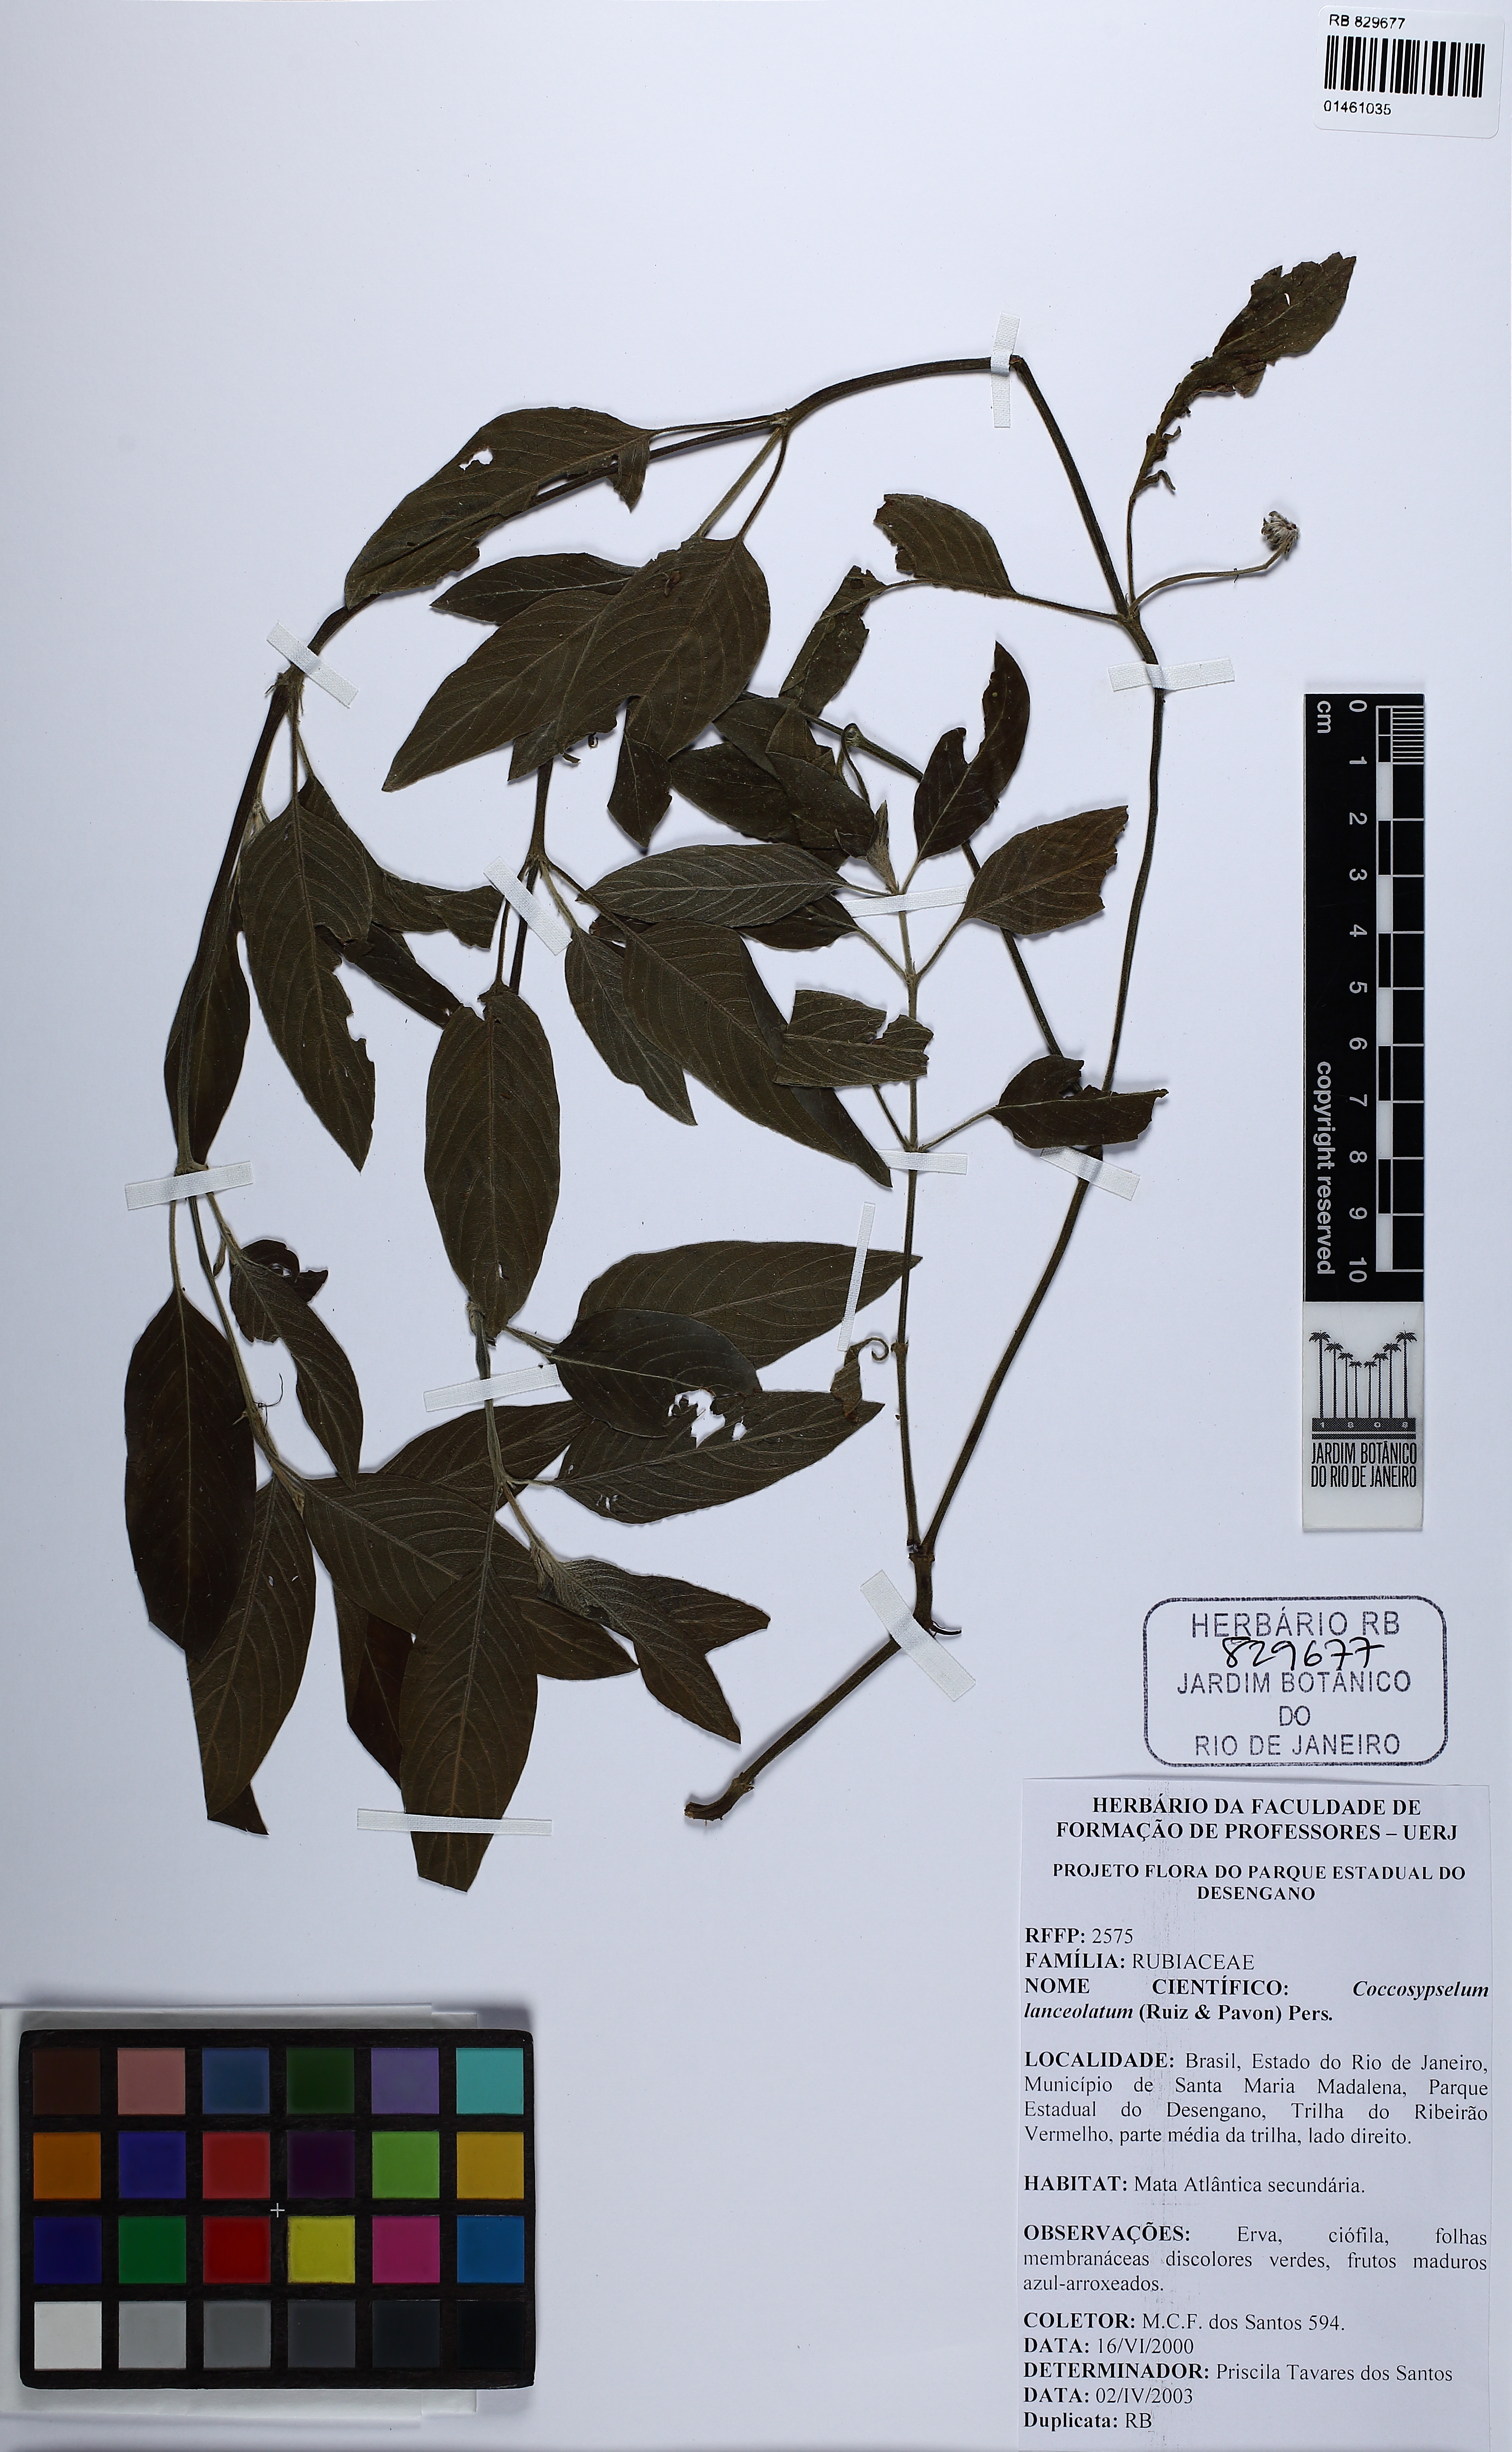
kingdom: Plantae
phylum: Tracheophyta
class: Magnoliopsida
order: Gentianales
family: Rubiaceae
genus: Coccocypselum
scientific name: Coccocypselum lanceolatum
